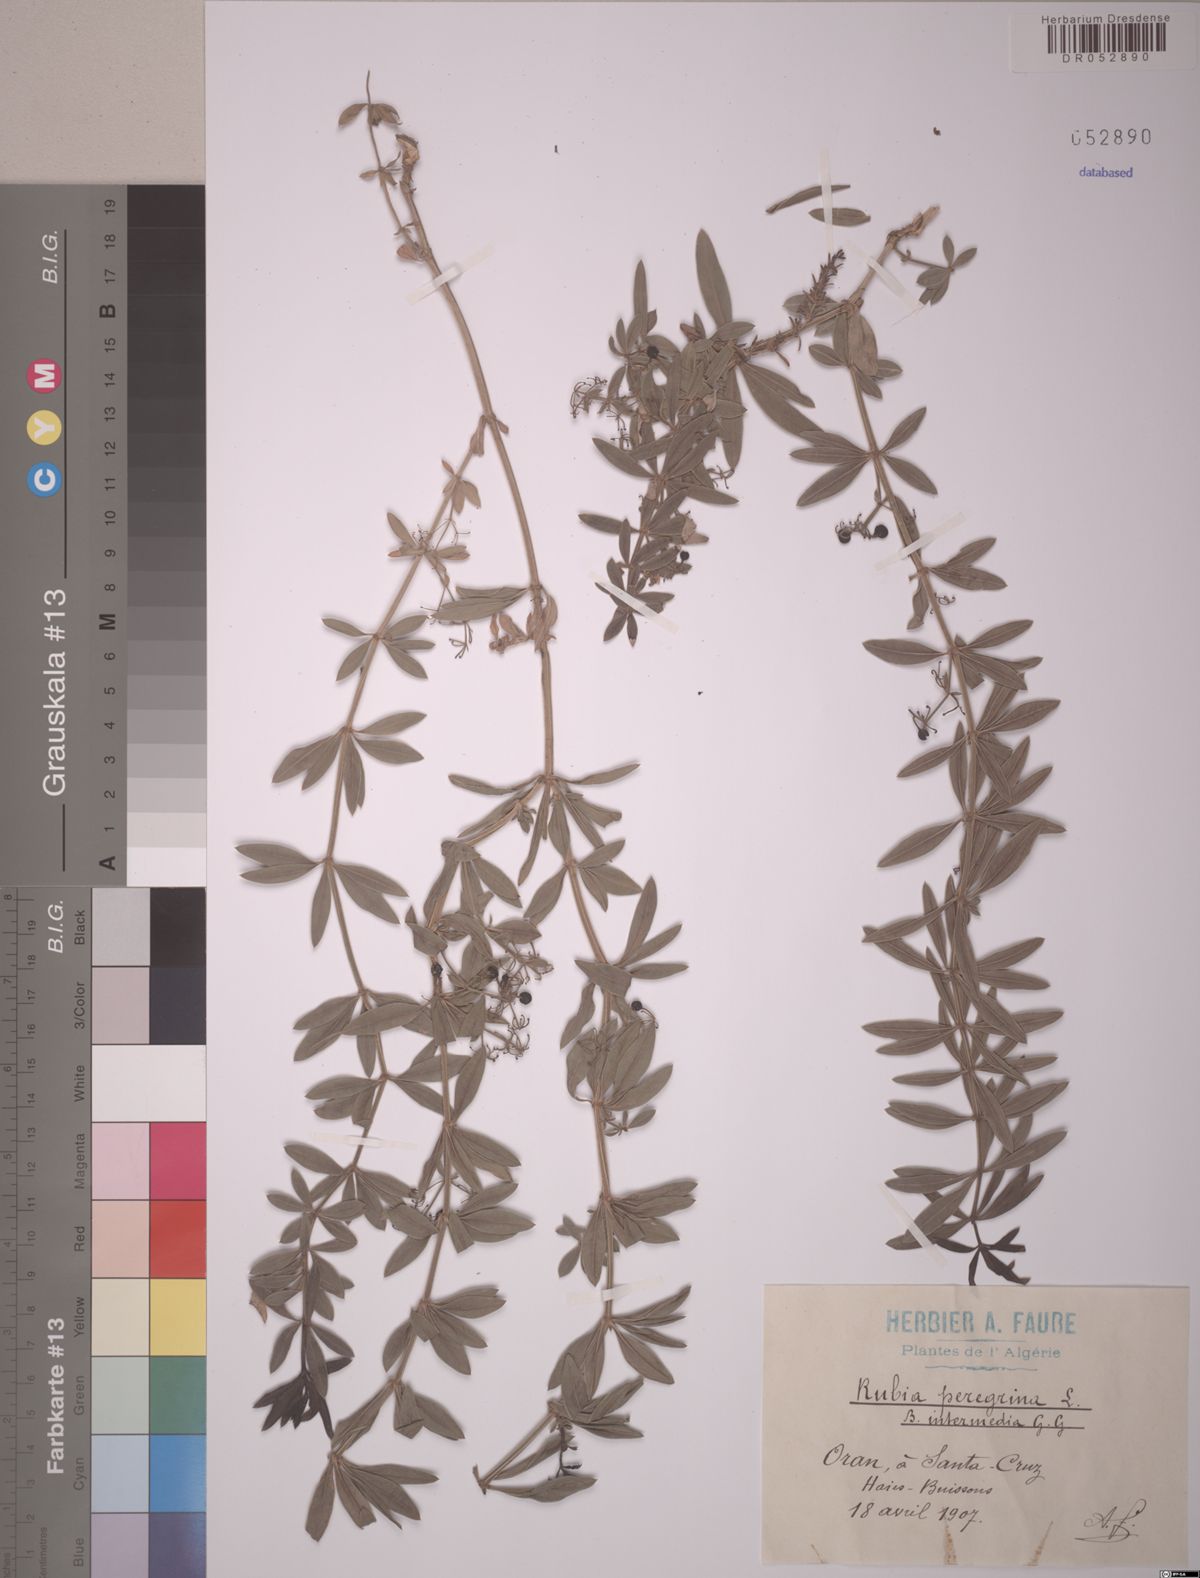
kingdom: Plantae
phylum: Tracheophyta
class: Magnoliopsida
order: Gentianales
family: Rubiaceae
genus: Rubia
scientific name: Rubia peregrina
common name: Wild madder
